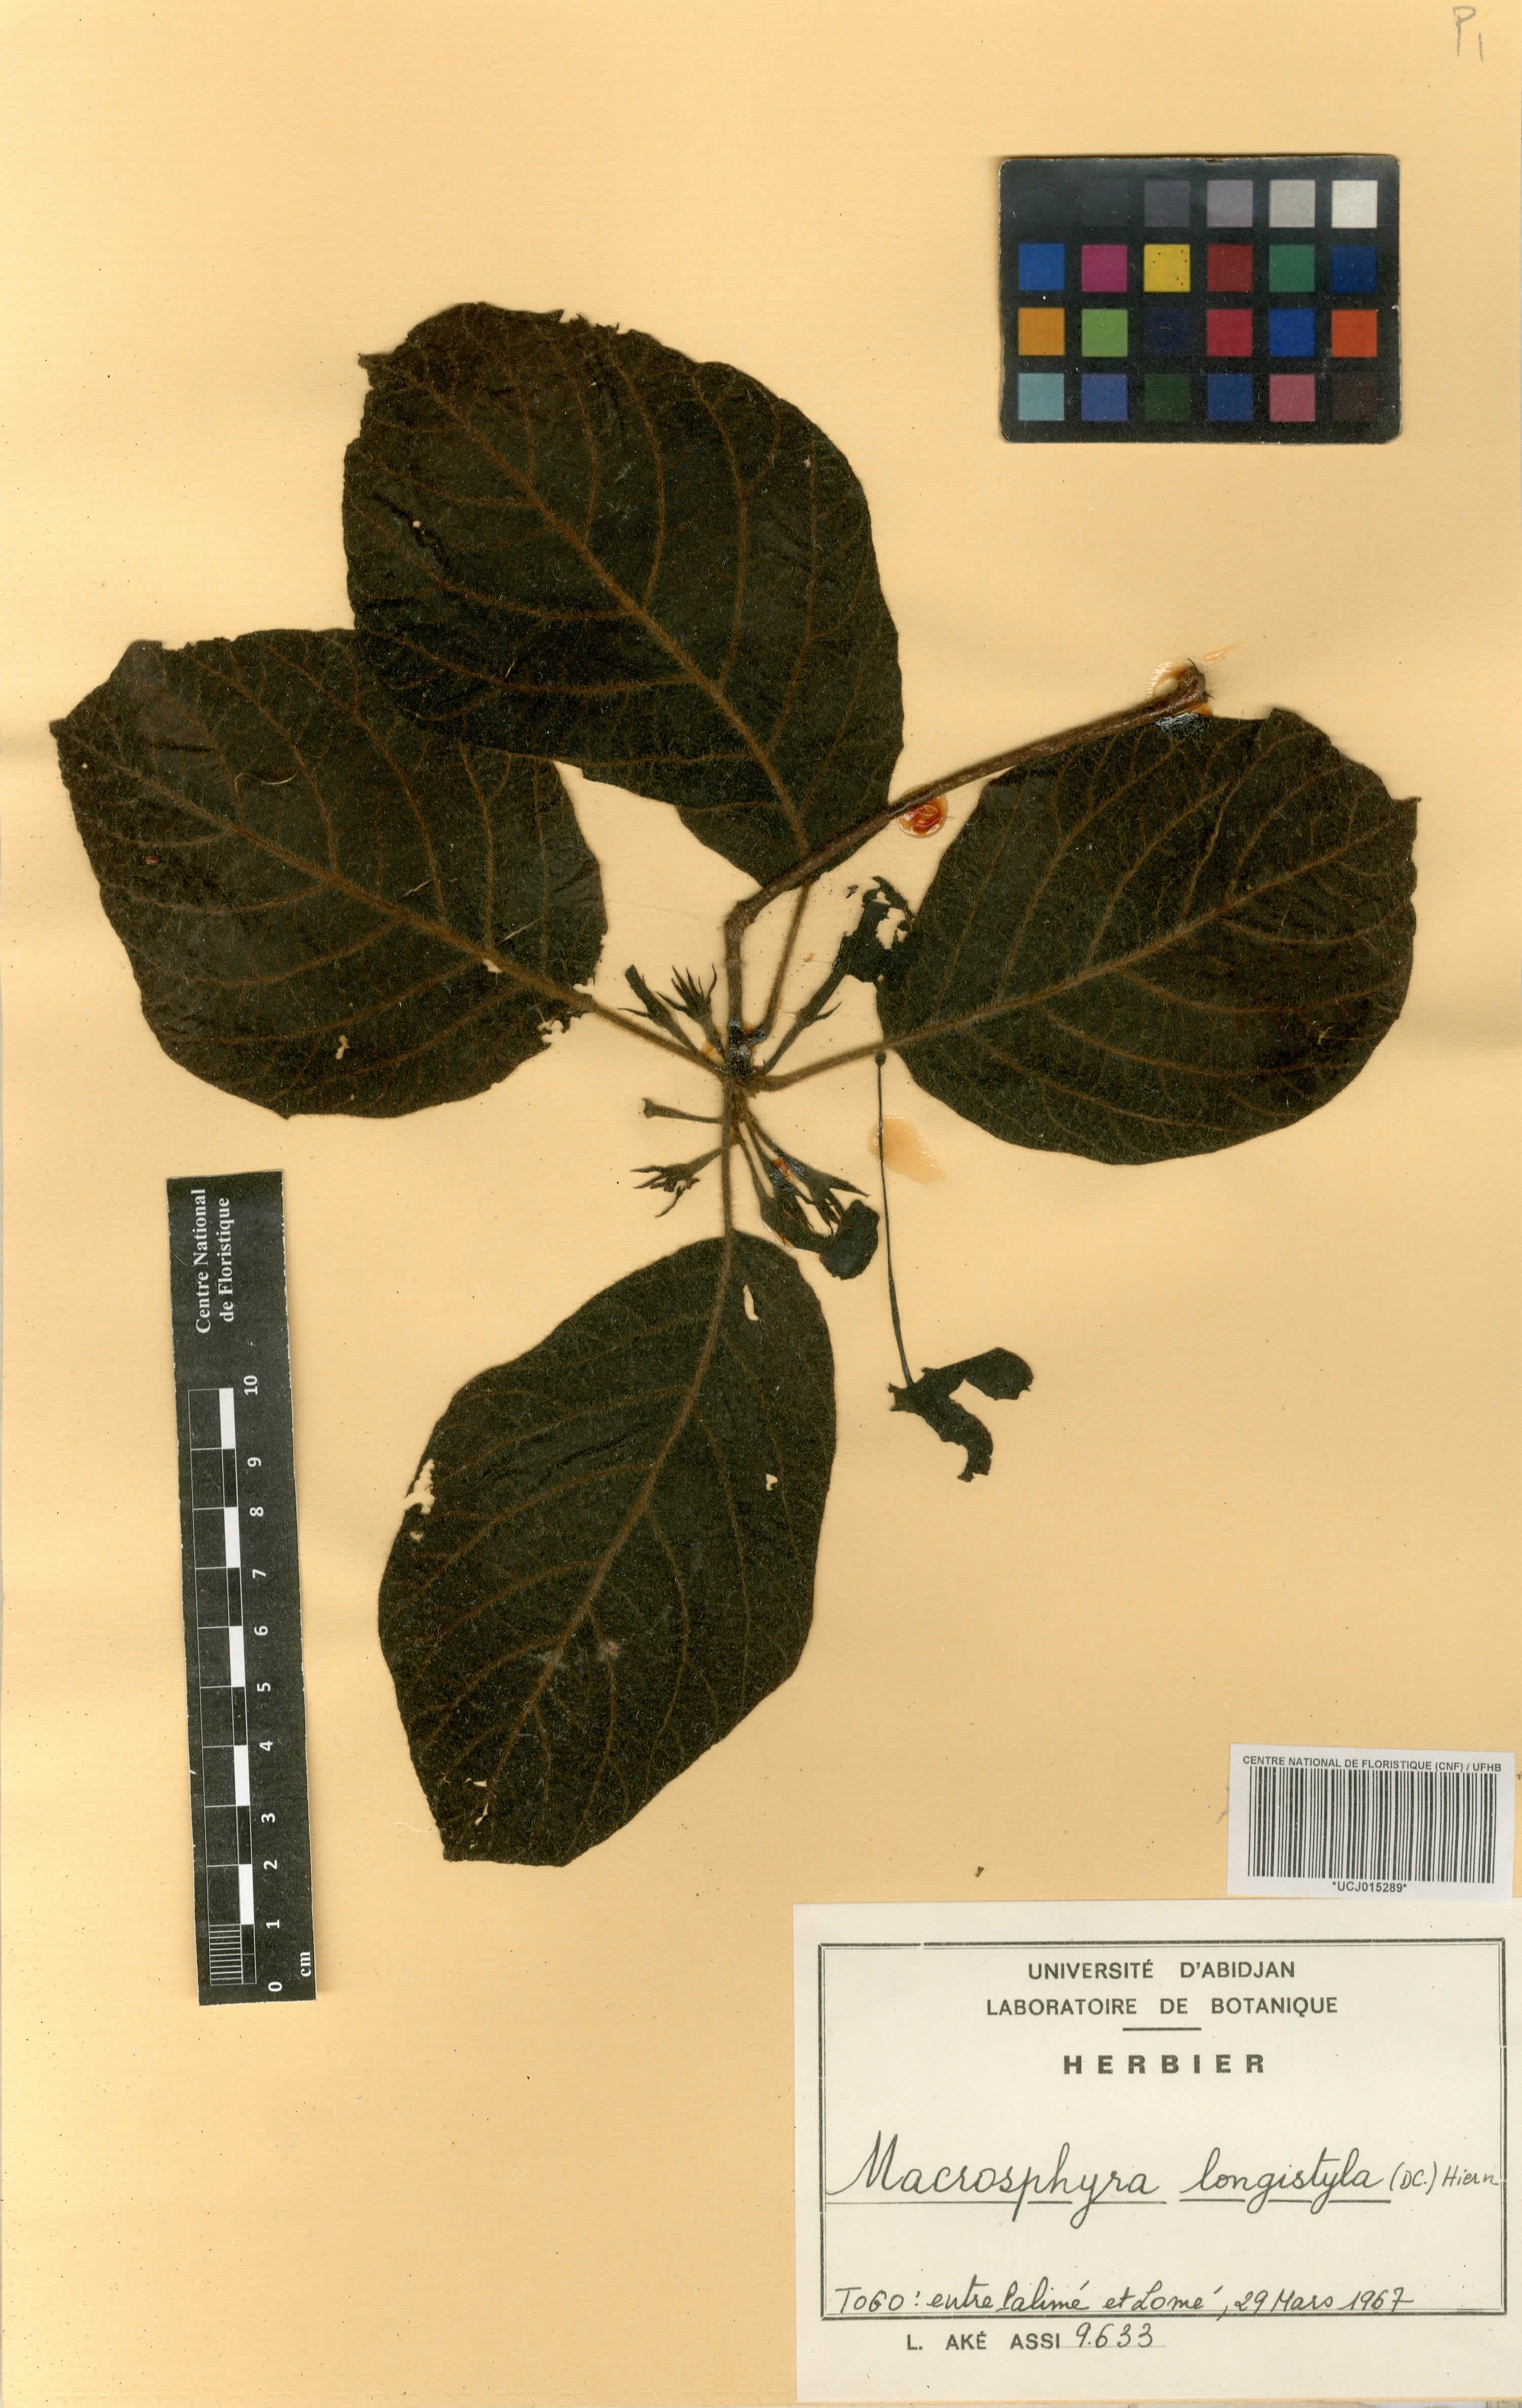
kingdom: Plantae
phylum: Tracheophyta
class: Magnoliopsida
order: Gentianales
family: Rubiaceae
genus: Macrosphyra
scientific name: Macrosphyra longistyla
